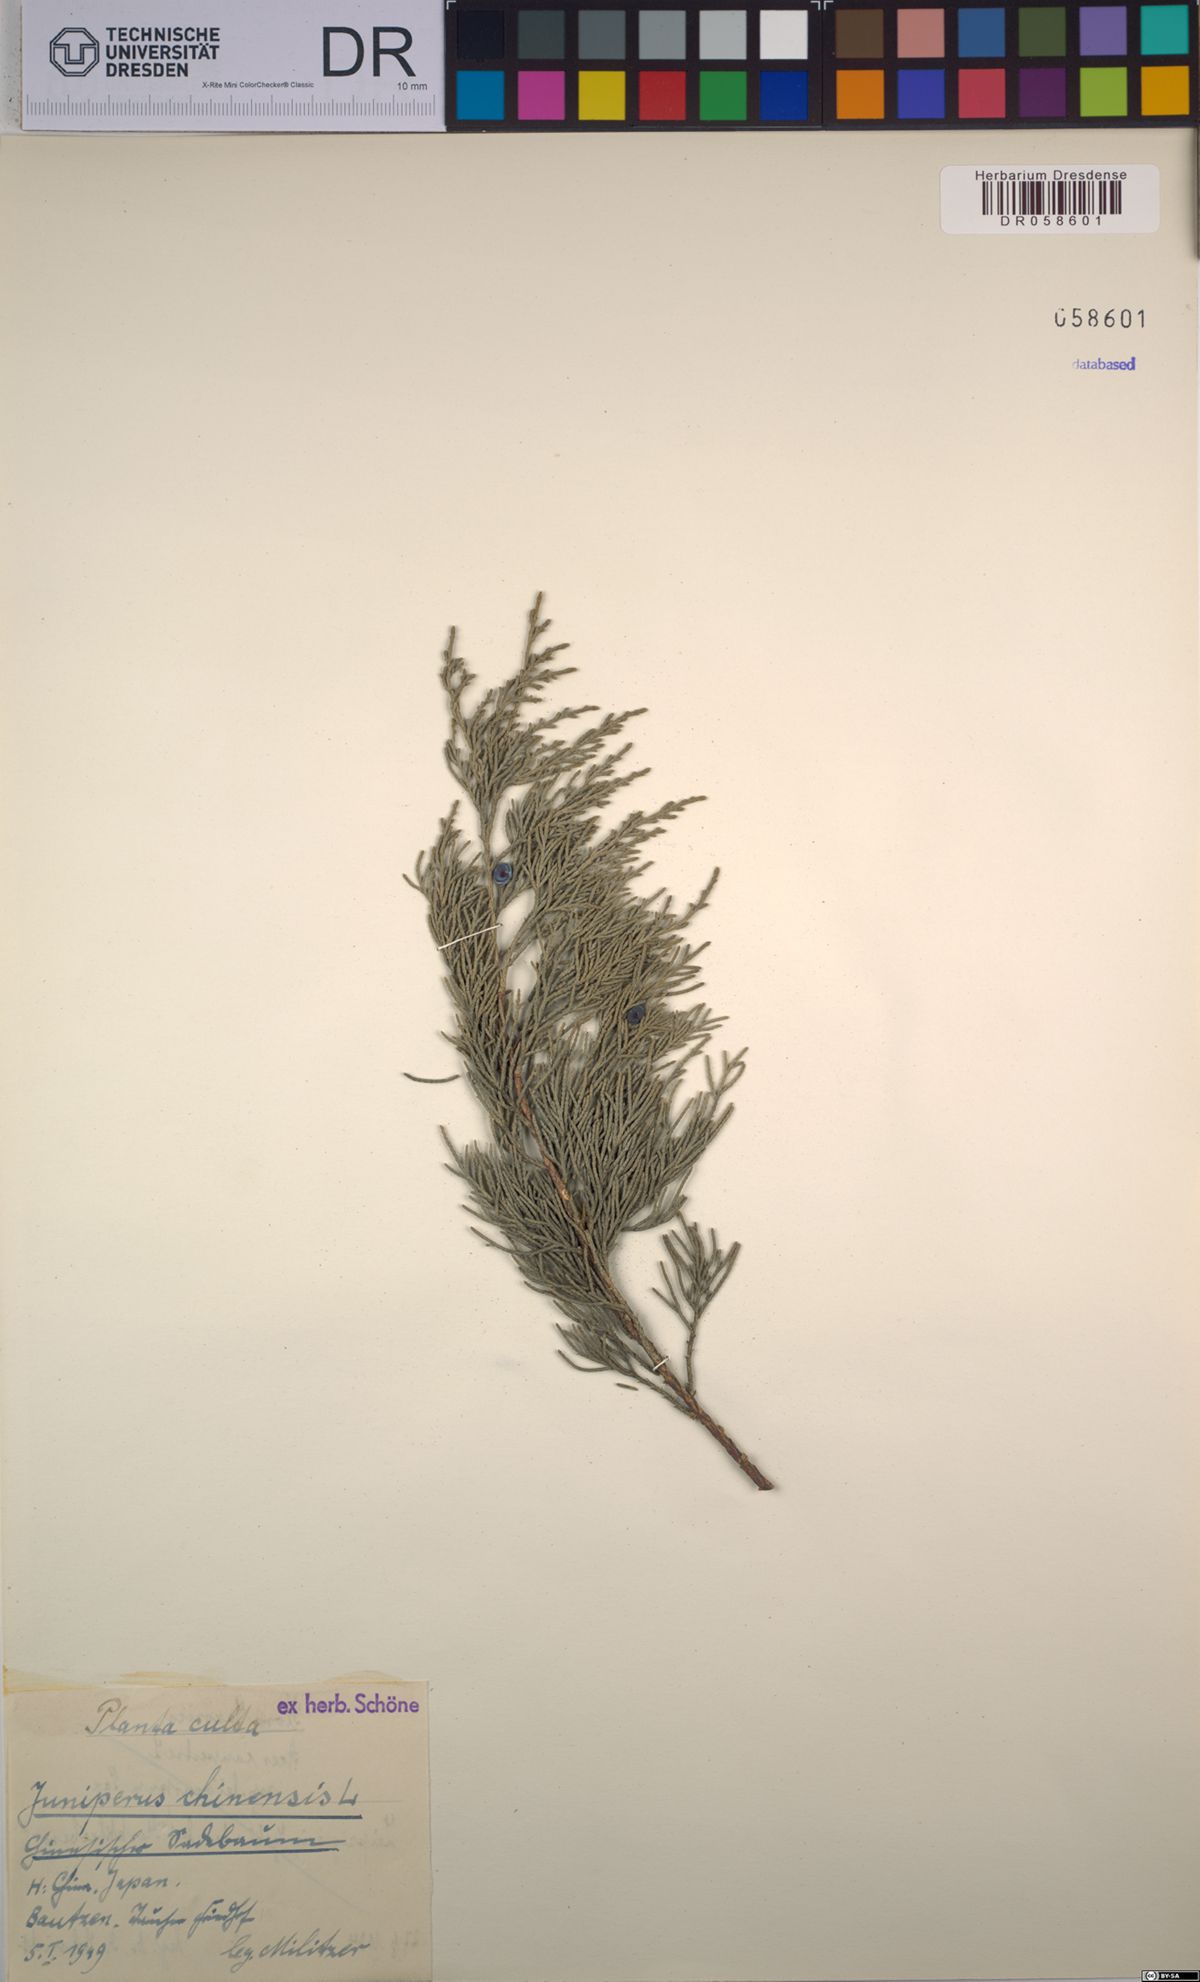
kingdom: Plantae
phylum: Tracheophyta
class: Pinopsida
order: Pinales
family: Cupressaceae
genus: Juniperus
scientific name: Juniperus chinensis
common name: Chinese juniper
